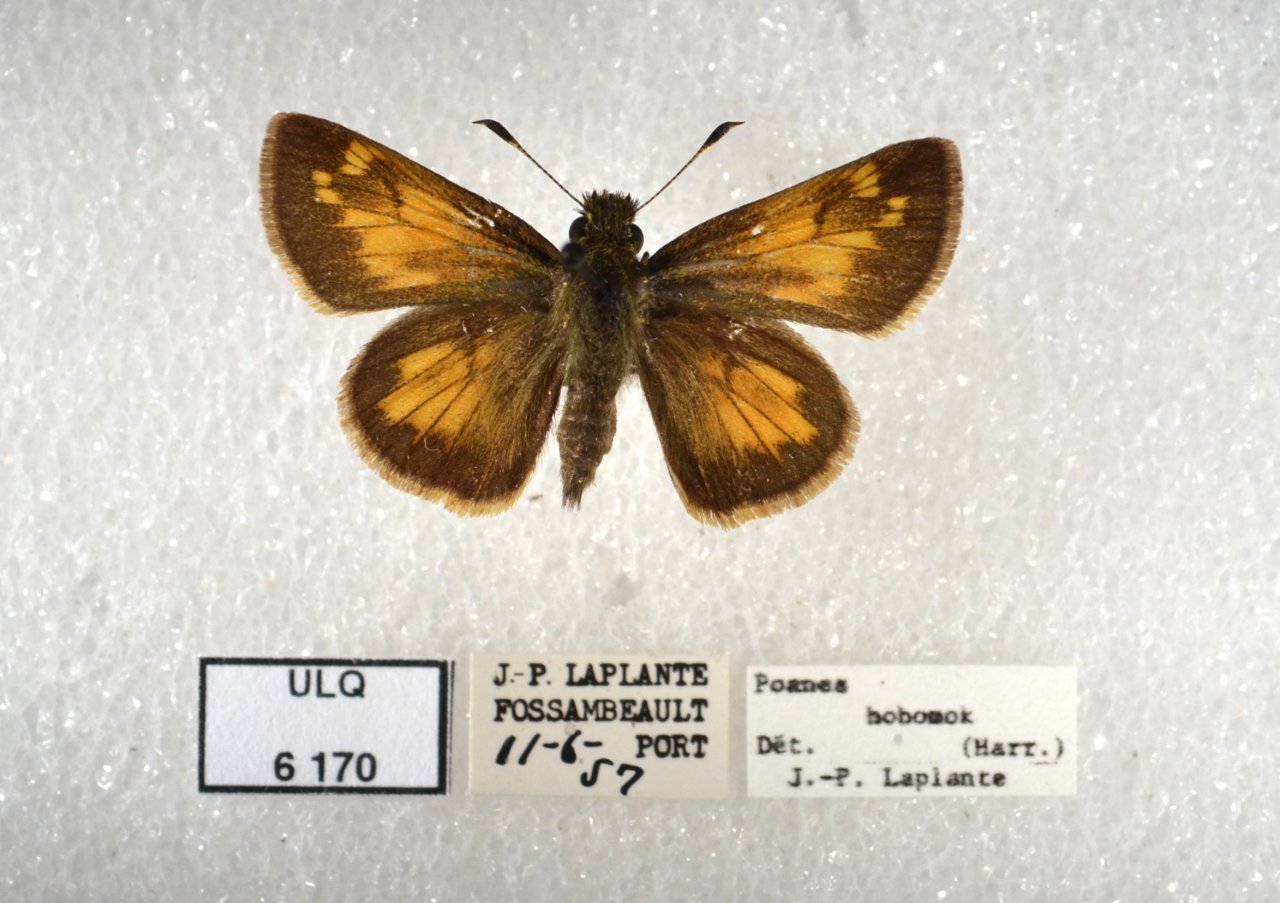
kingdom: Animalia
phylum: Arthropoda
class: Insecta
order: Lepidoptera
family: Hesperiidae
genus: Lon
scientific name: Lon hobomok
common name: Hobomok Skipper
